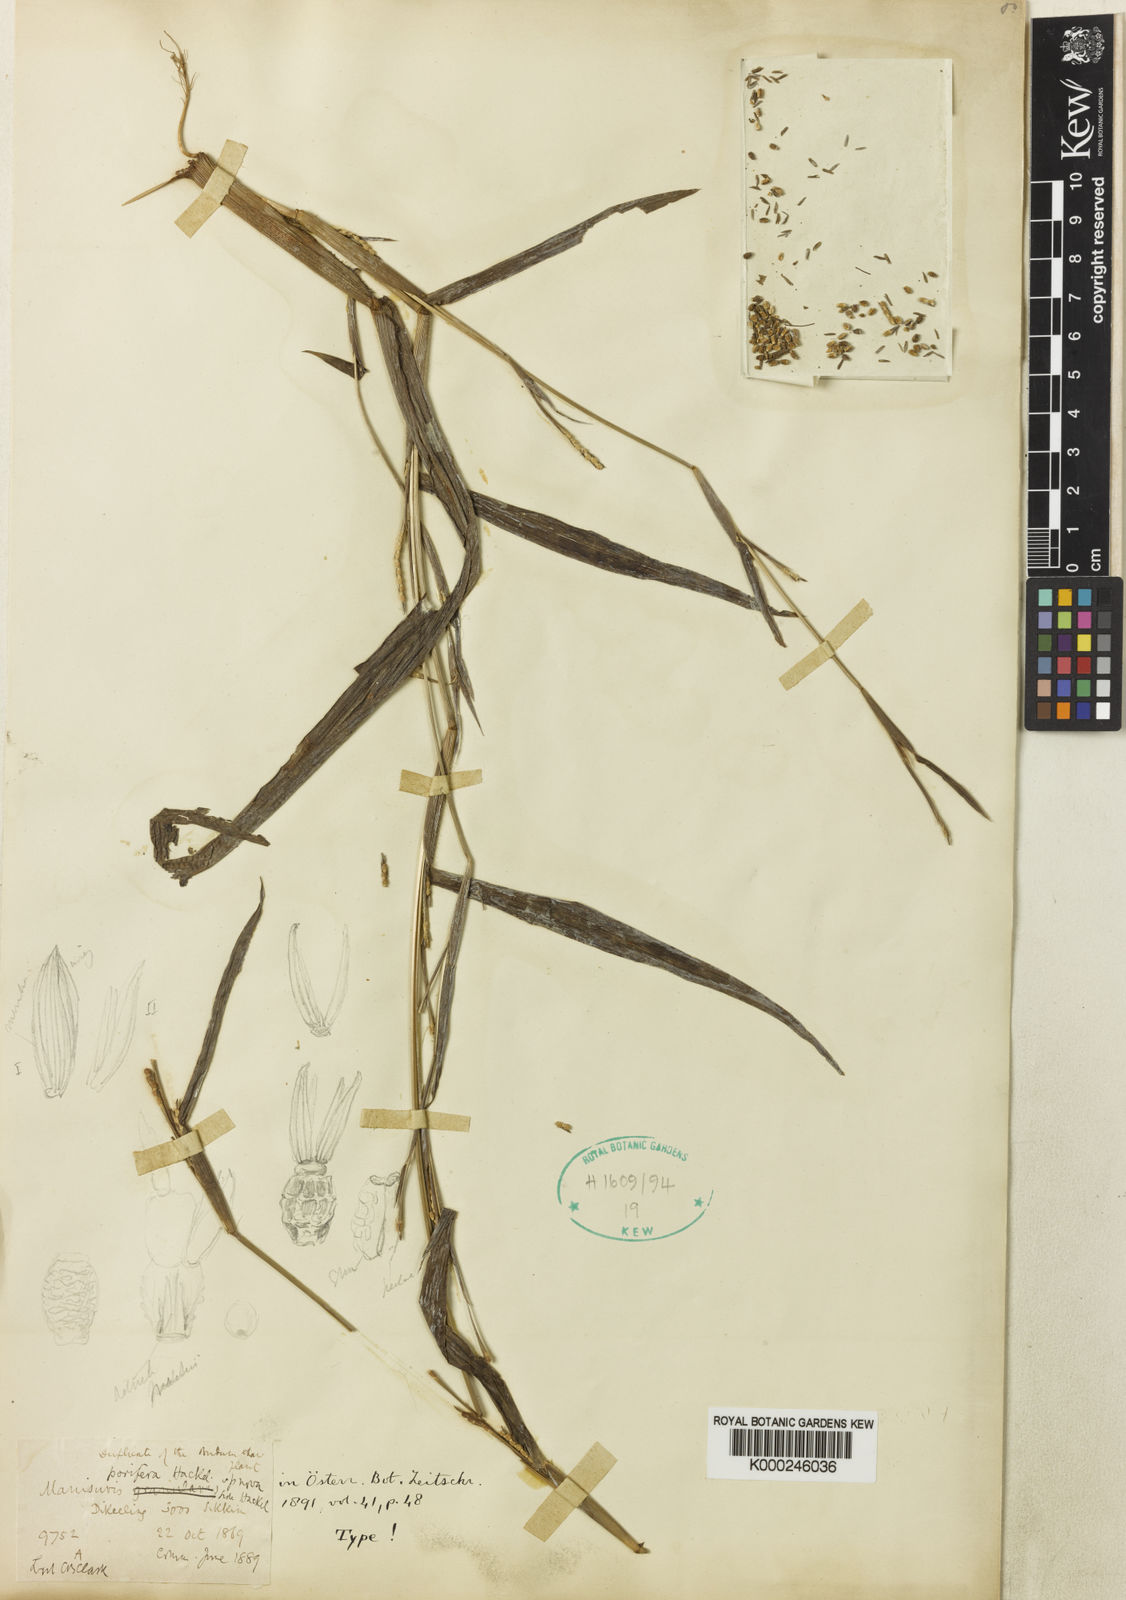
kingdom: Plantae
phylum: Tracheophyta
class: Liliopsida
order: Poales
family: Poaceae
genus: Hackelochloa
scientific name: Hackelochloa porifera
